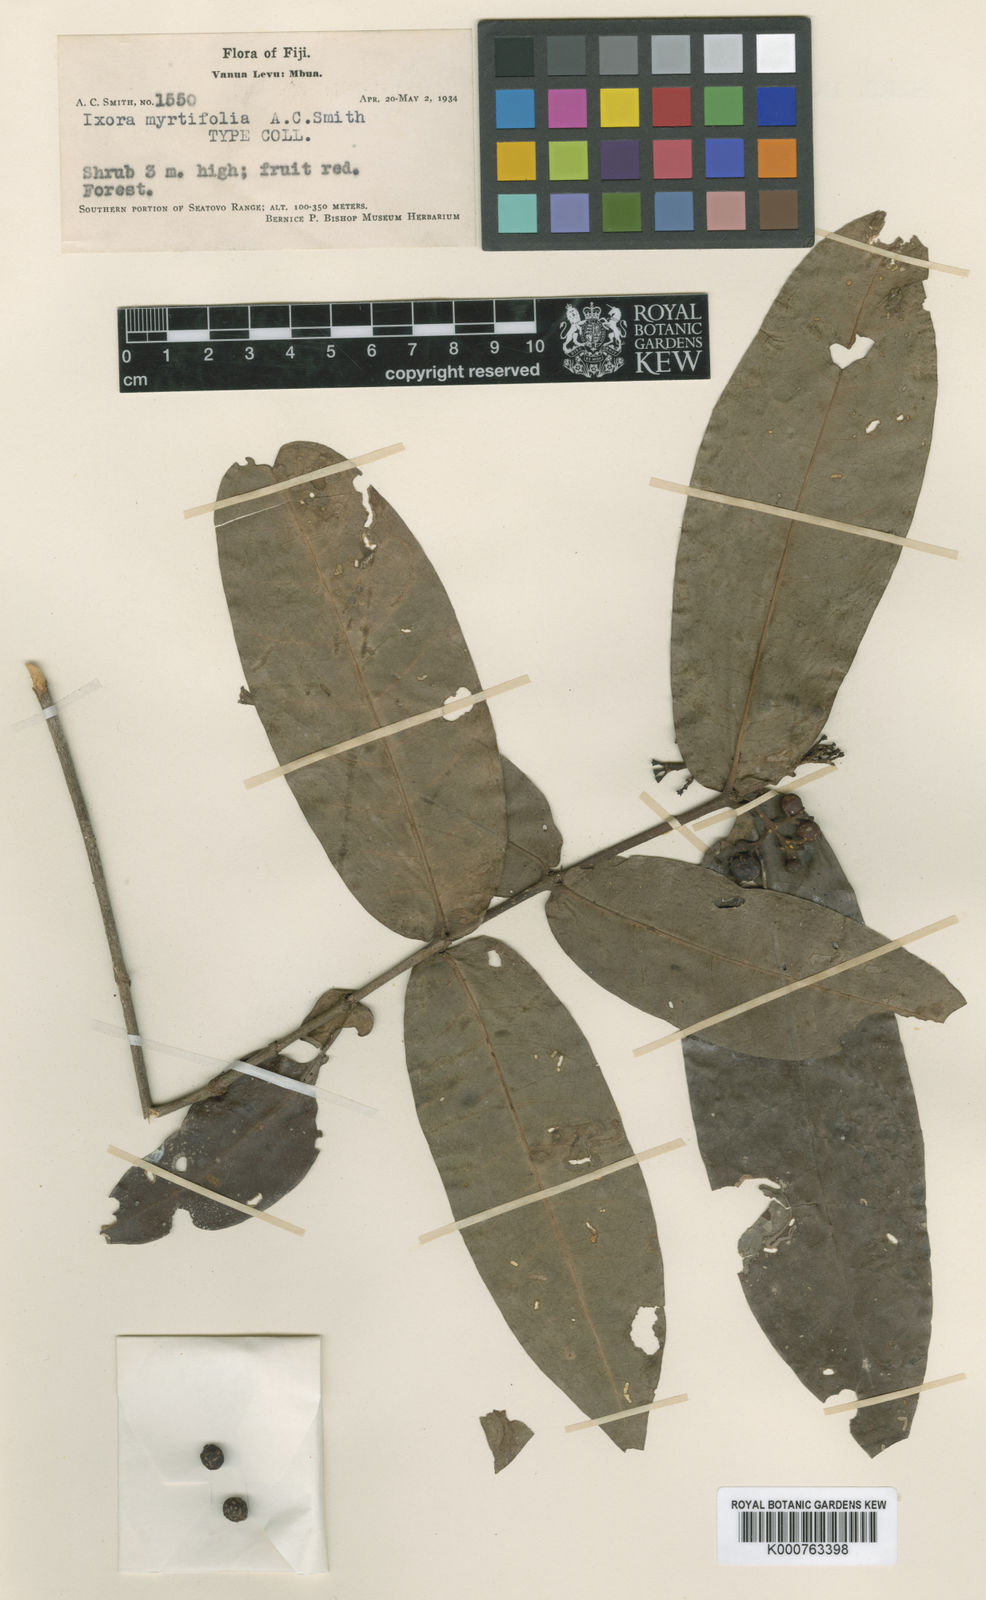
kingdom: Plantae
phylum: Tracheophyta
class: Magnoliopsida
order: Gentianales
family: Rubiaceae
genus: Ixora
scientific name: Ixora myrtifolia
